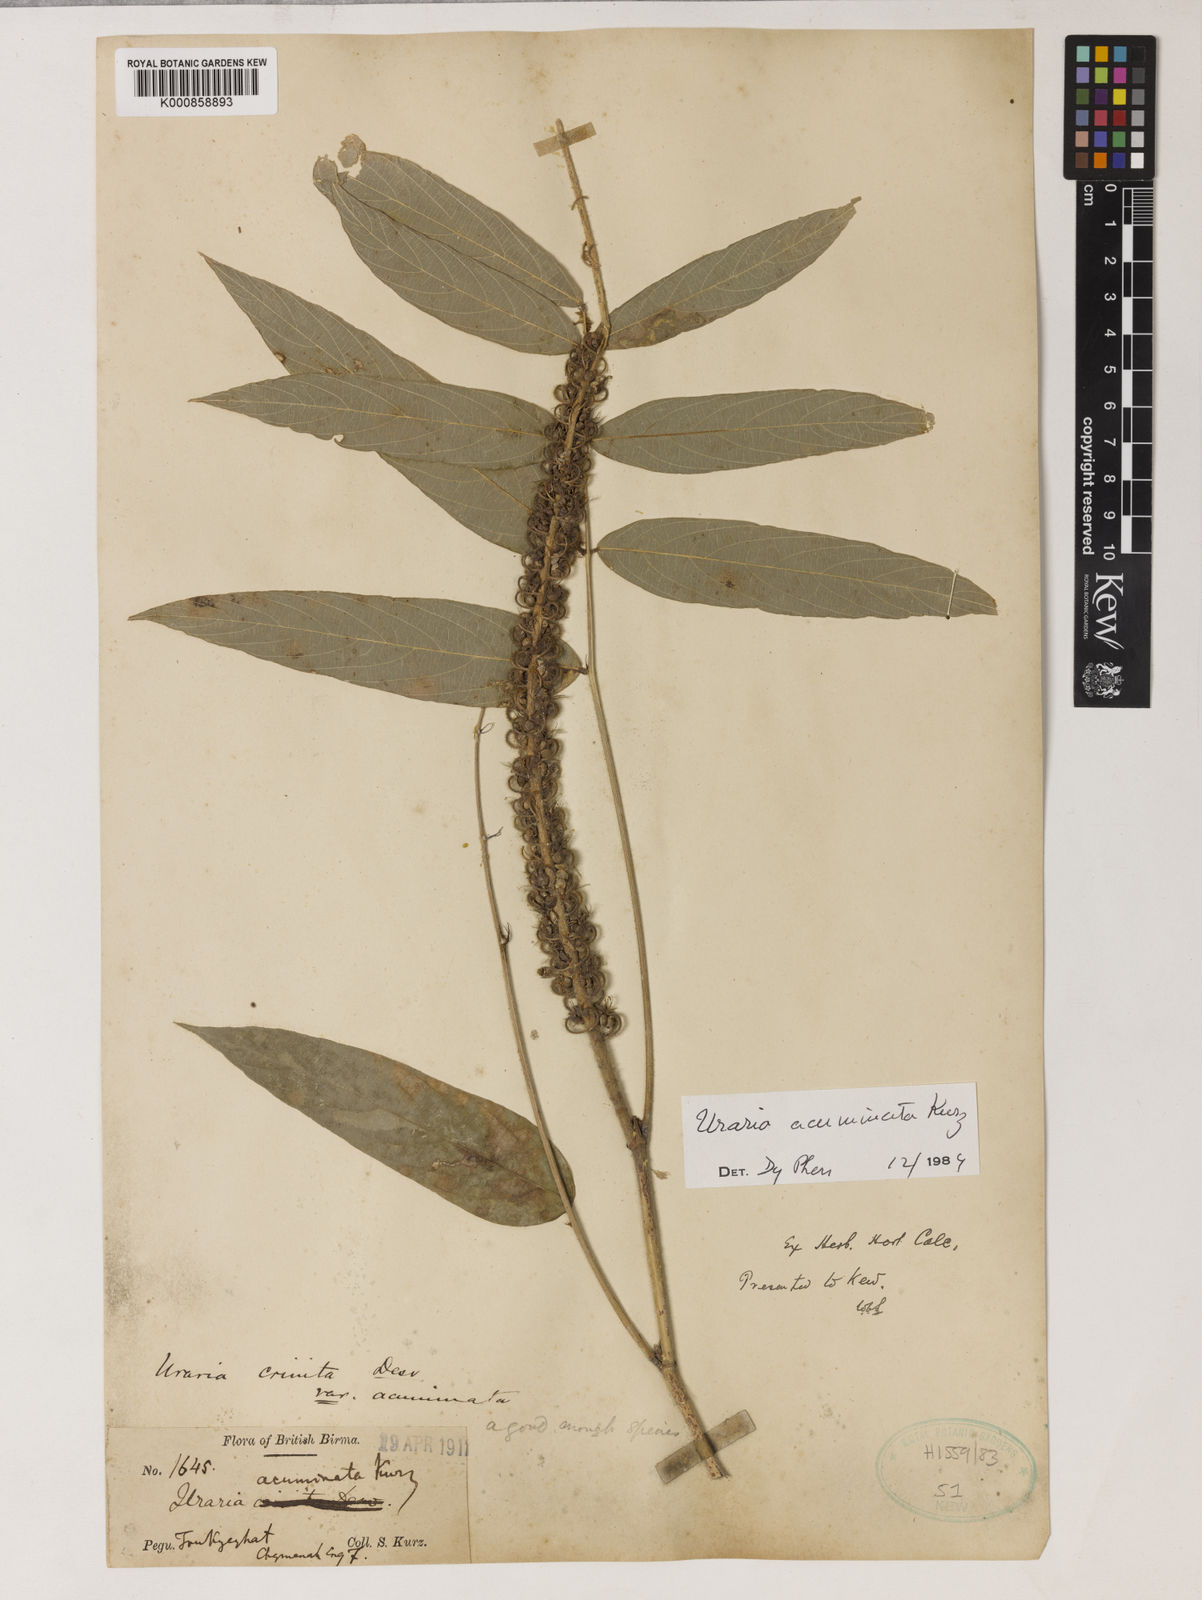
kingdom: Plantae
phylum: Tracheophyta
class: Magnoliopsida
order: Fabales
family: Fabaceae
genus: Uraria
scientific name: Uraria acuminata
